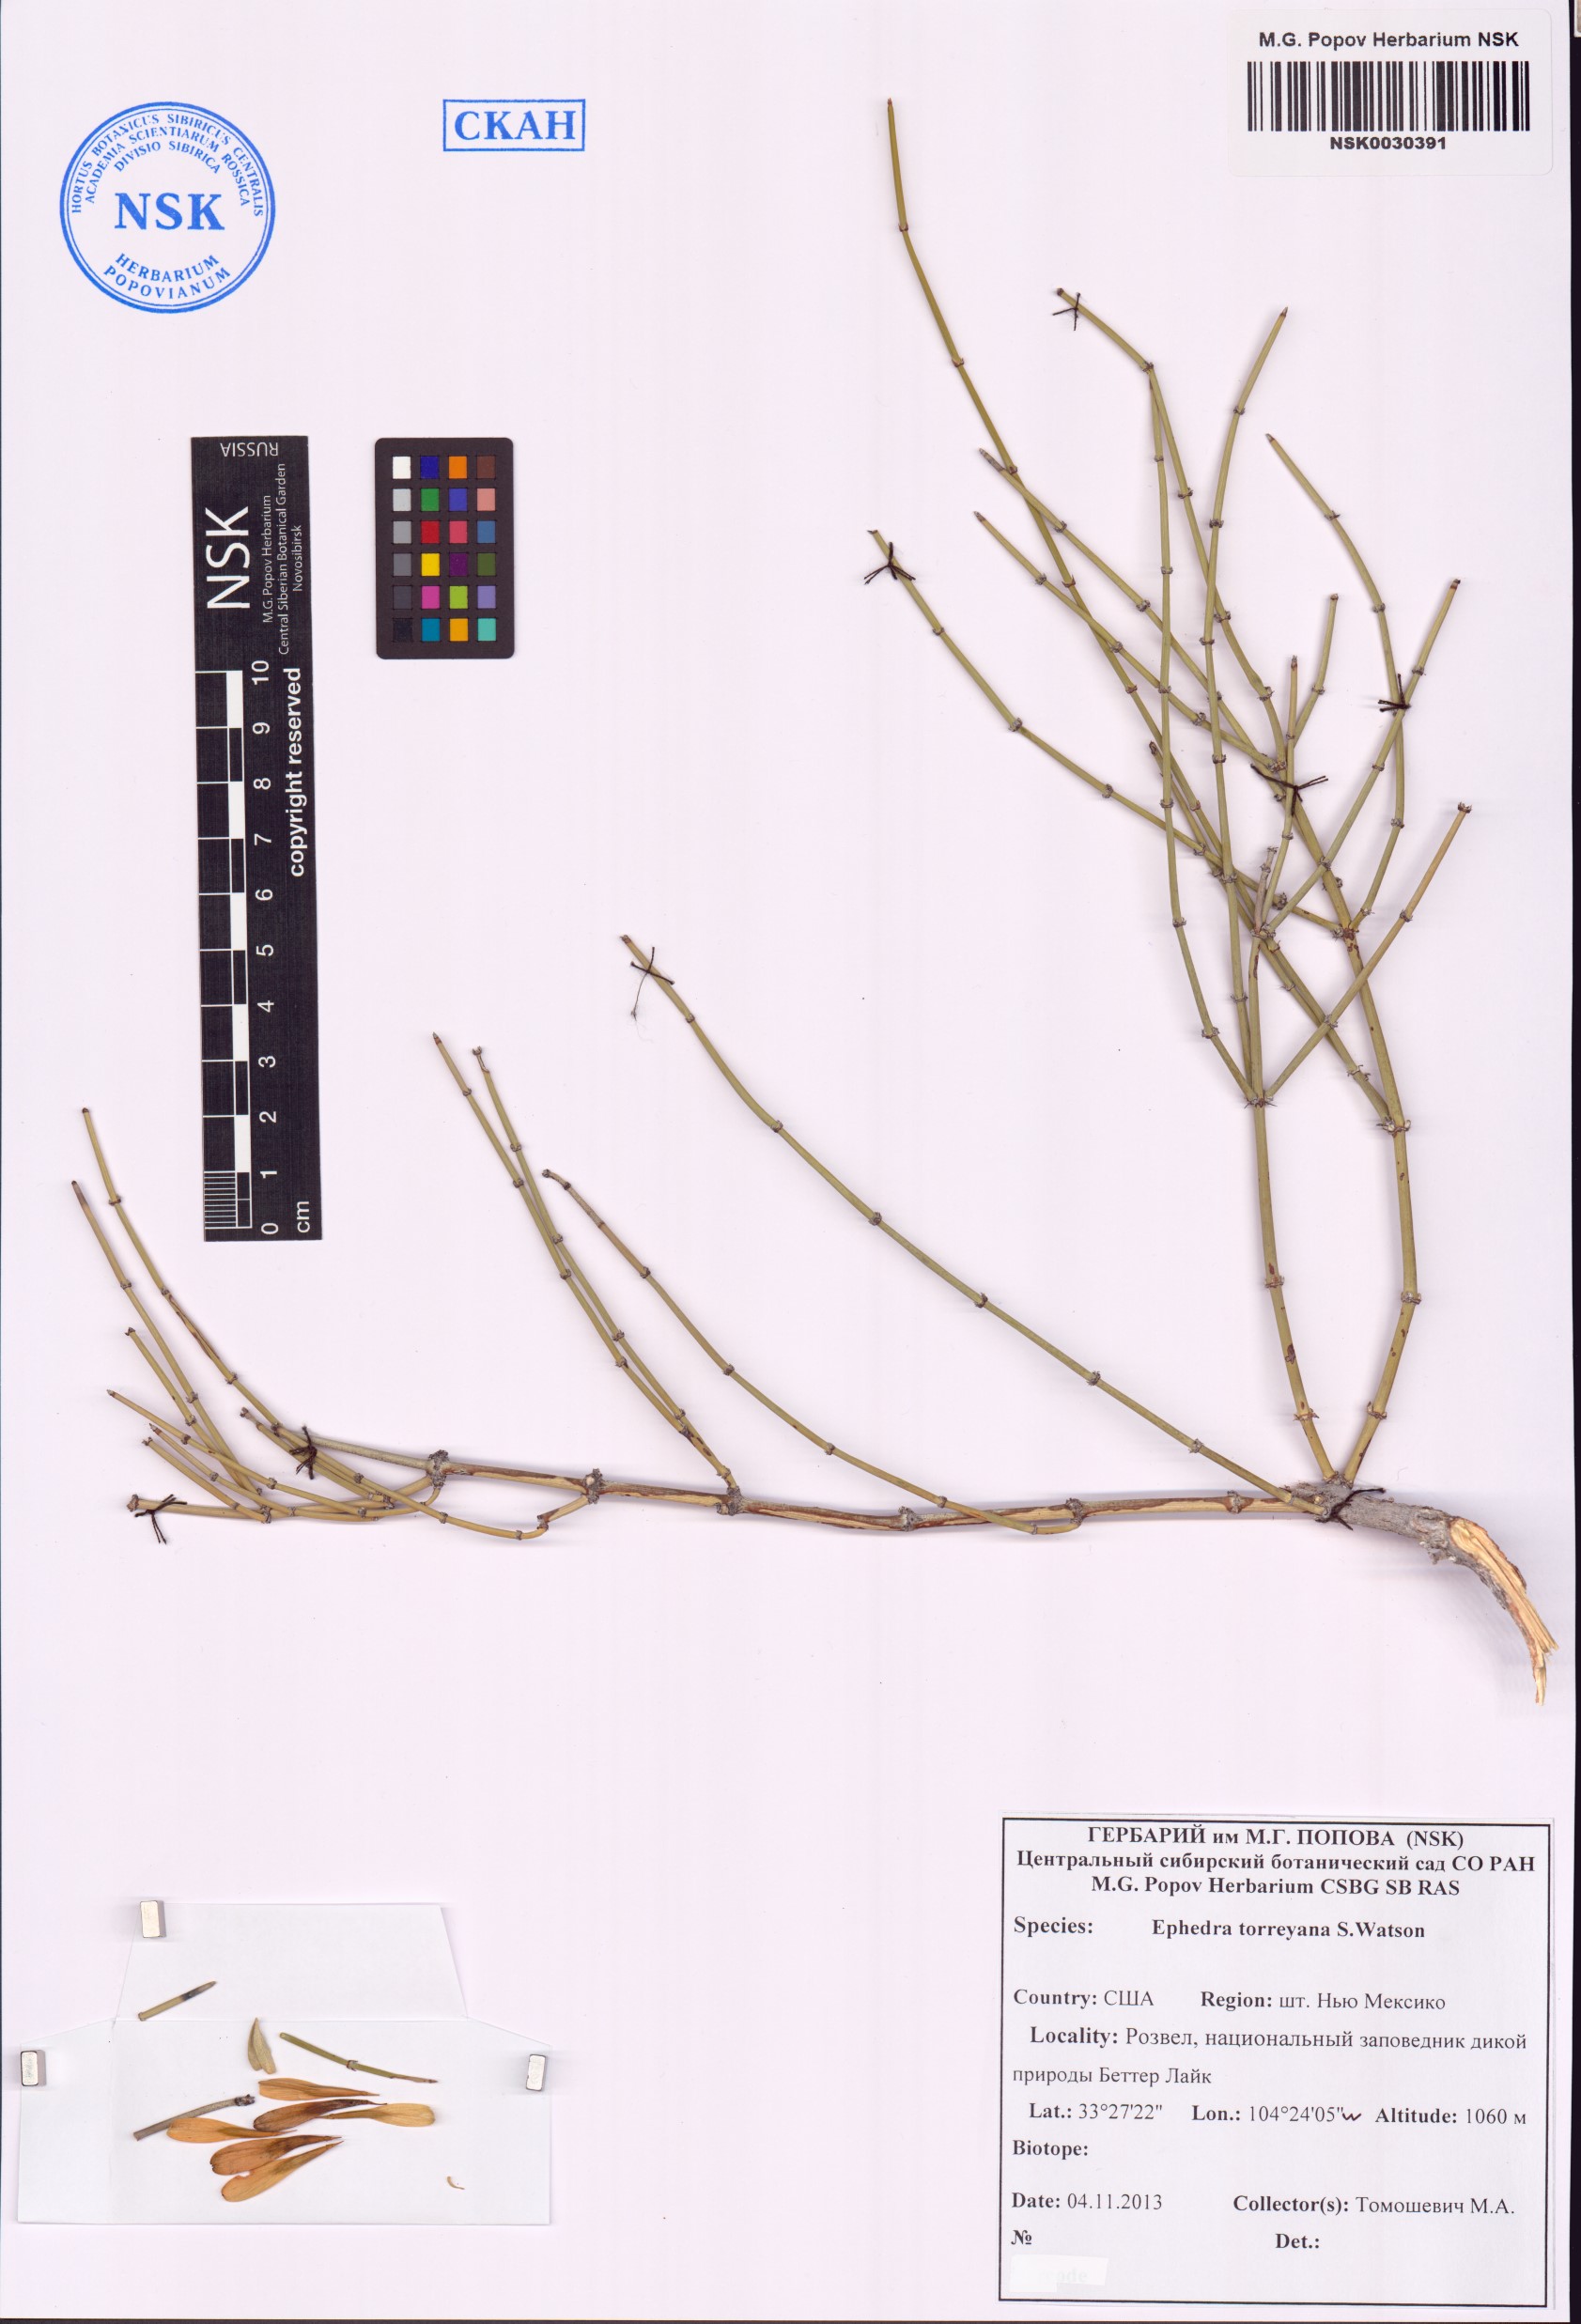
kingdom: Plantae
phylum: Tracheophyta
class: Gnetopsida
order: Ephedrales
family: Ephedraceae
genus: Ephedra
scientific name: Ephedra torreyana
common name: Torrey ephedra
